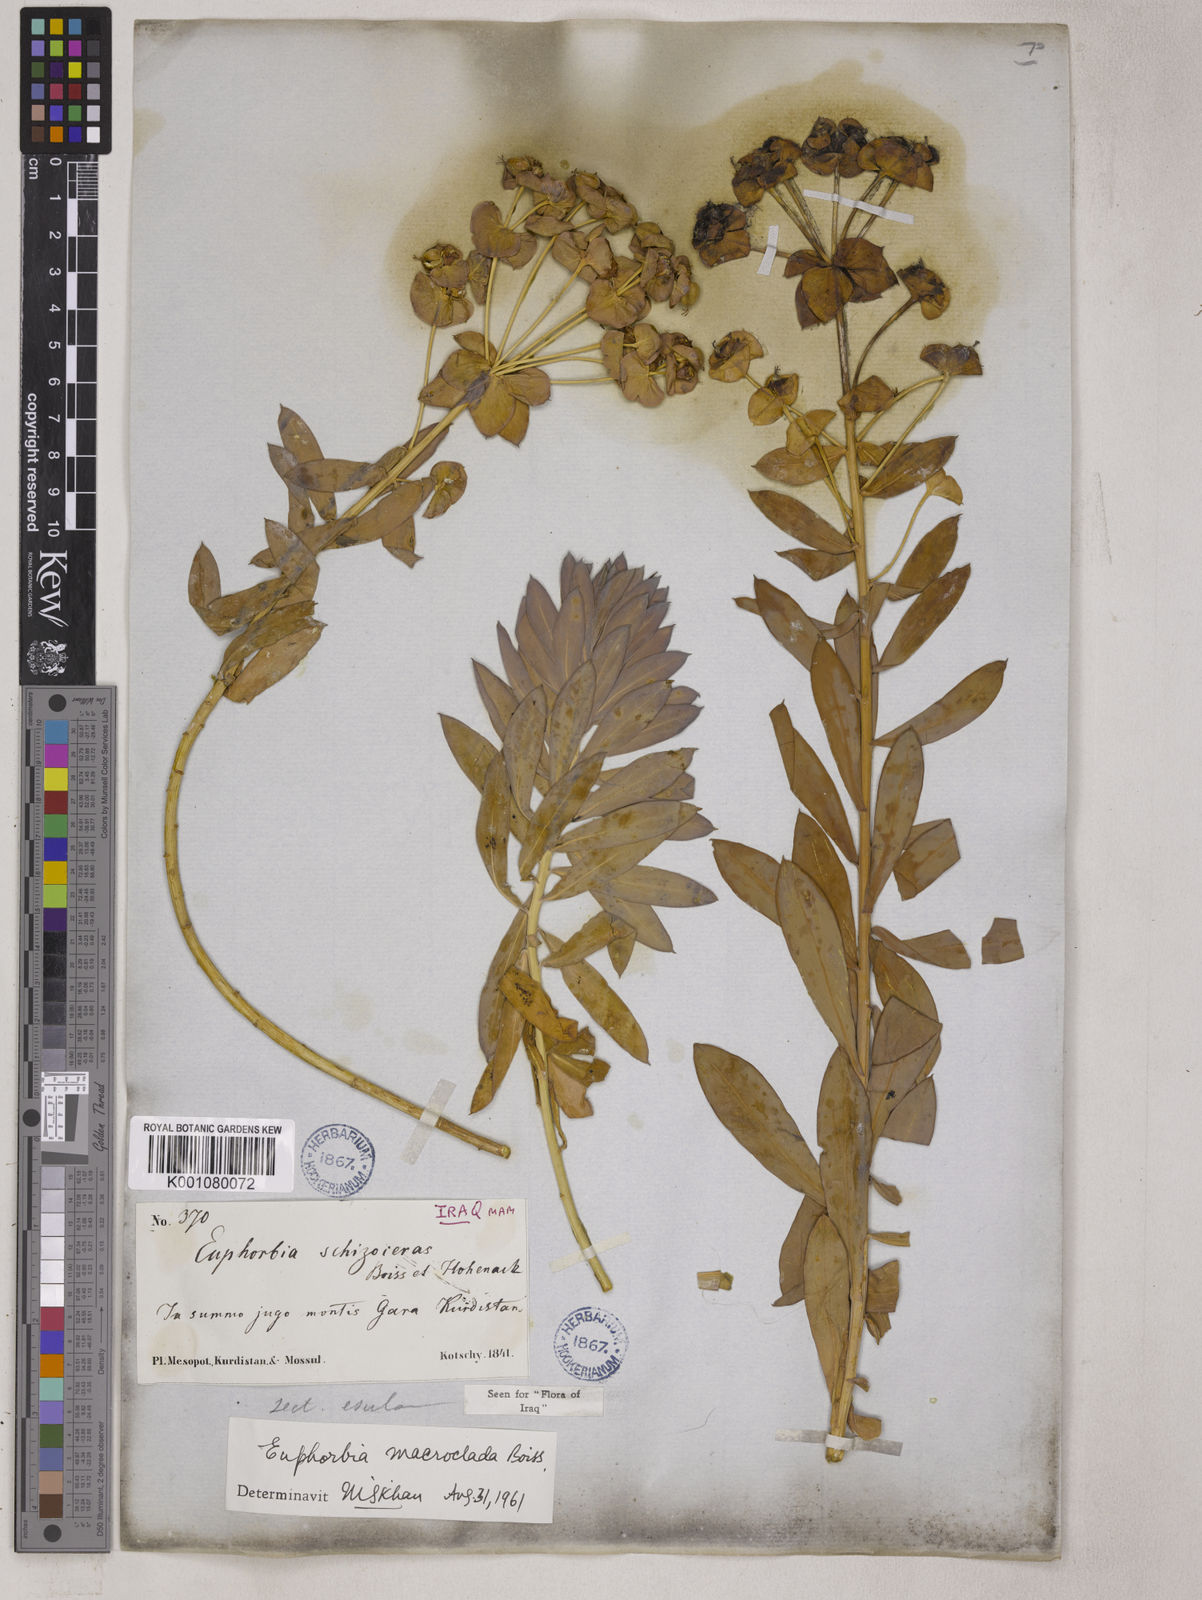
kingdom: Plantae
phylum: Tracheophyta
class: Magnoliopsida
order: Malpighiales
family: Euphorbiaceae
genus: Euphorbia
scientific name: Euphorbia macroclada
